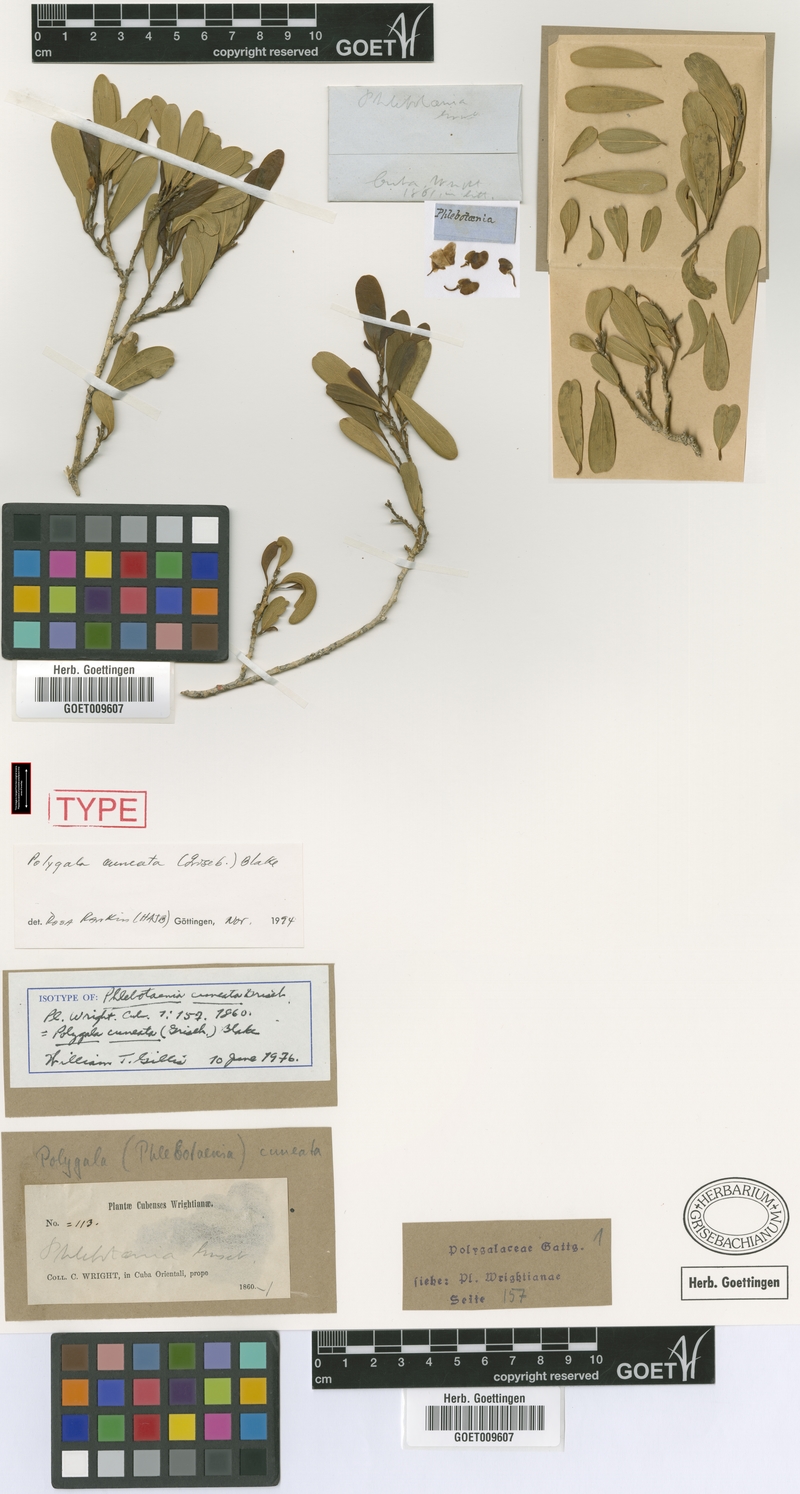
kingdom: Plantae
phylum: Tracheophyta
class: Magnoliopsida
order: Fabales
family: Polygalaceae
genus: Phlebotaenia
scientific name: Phlebotaenia cuneata
